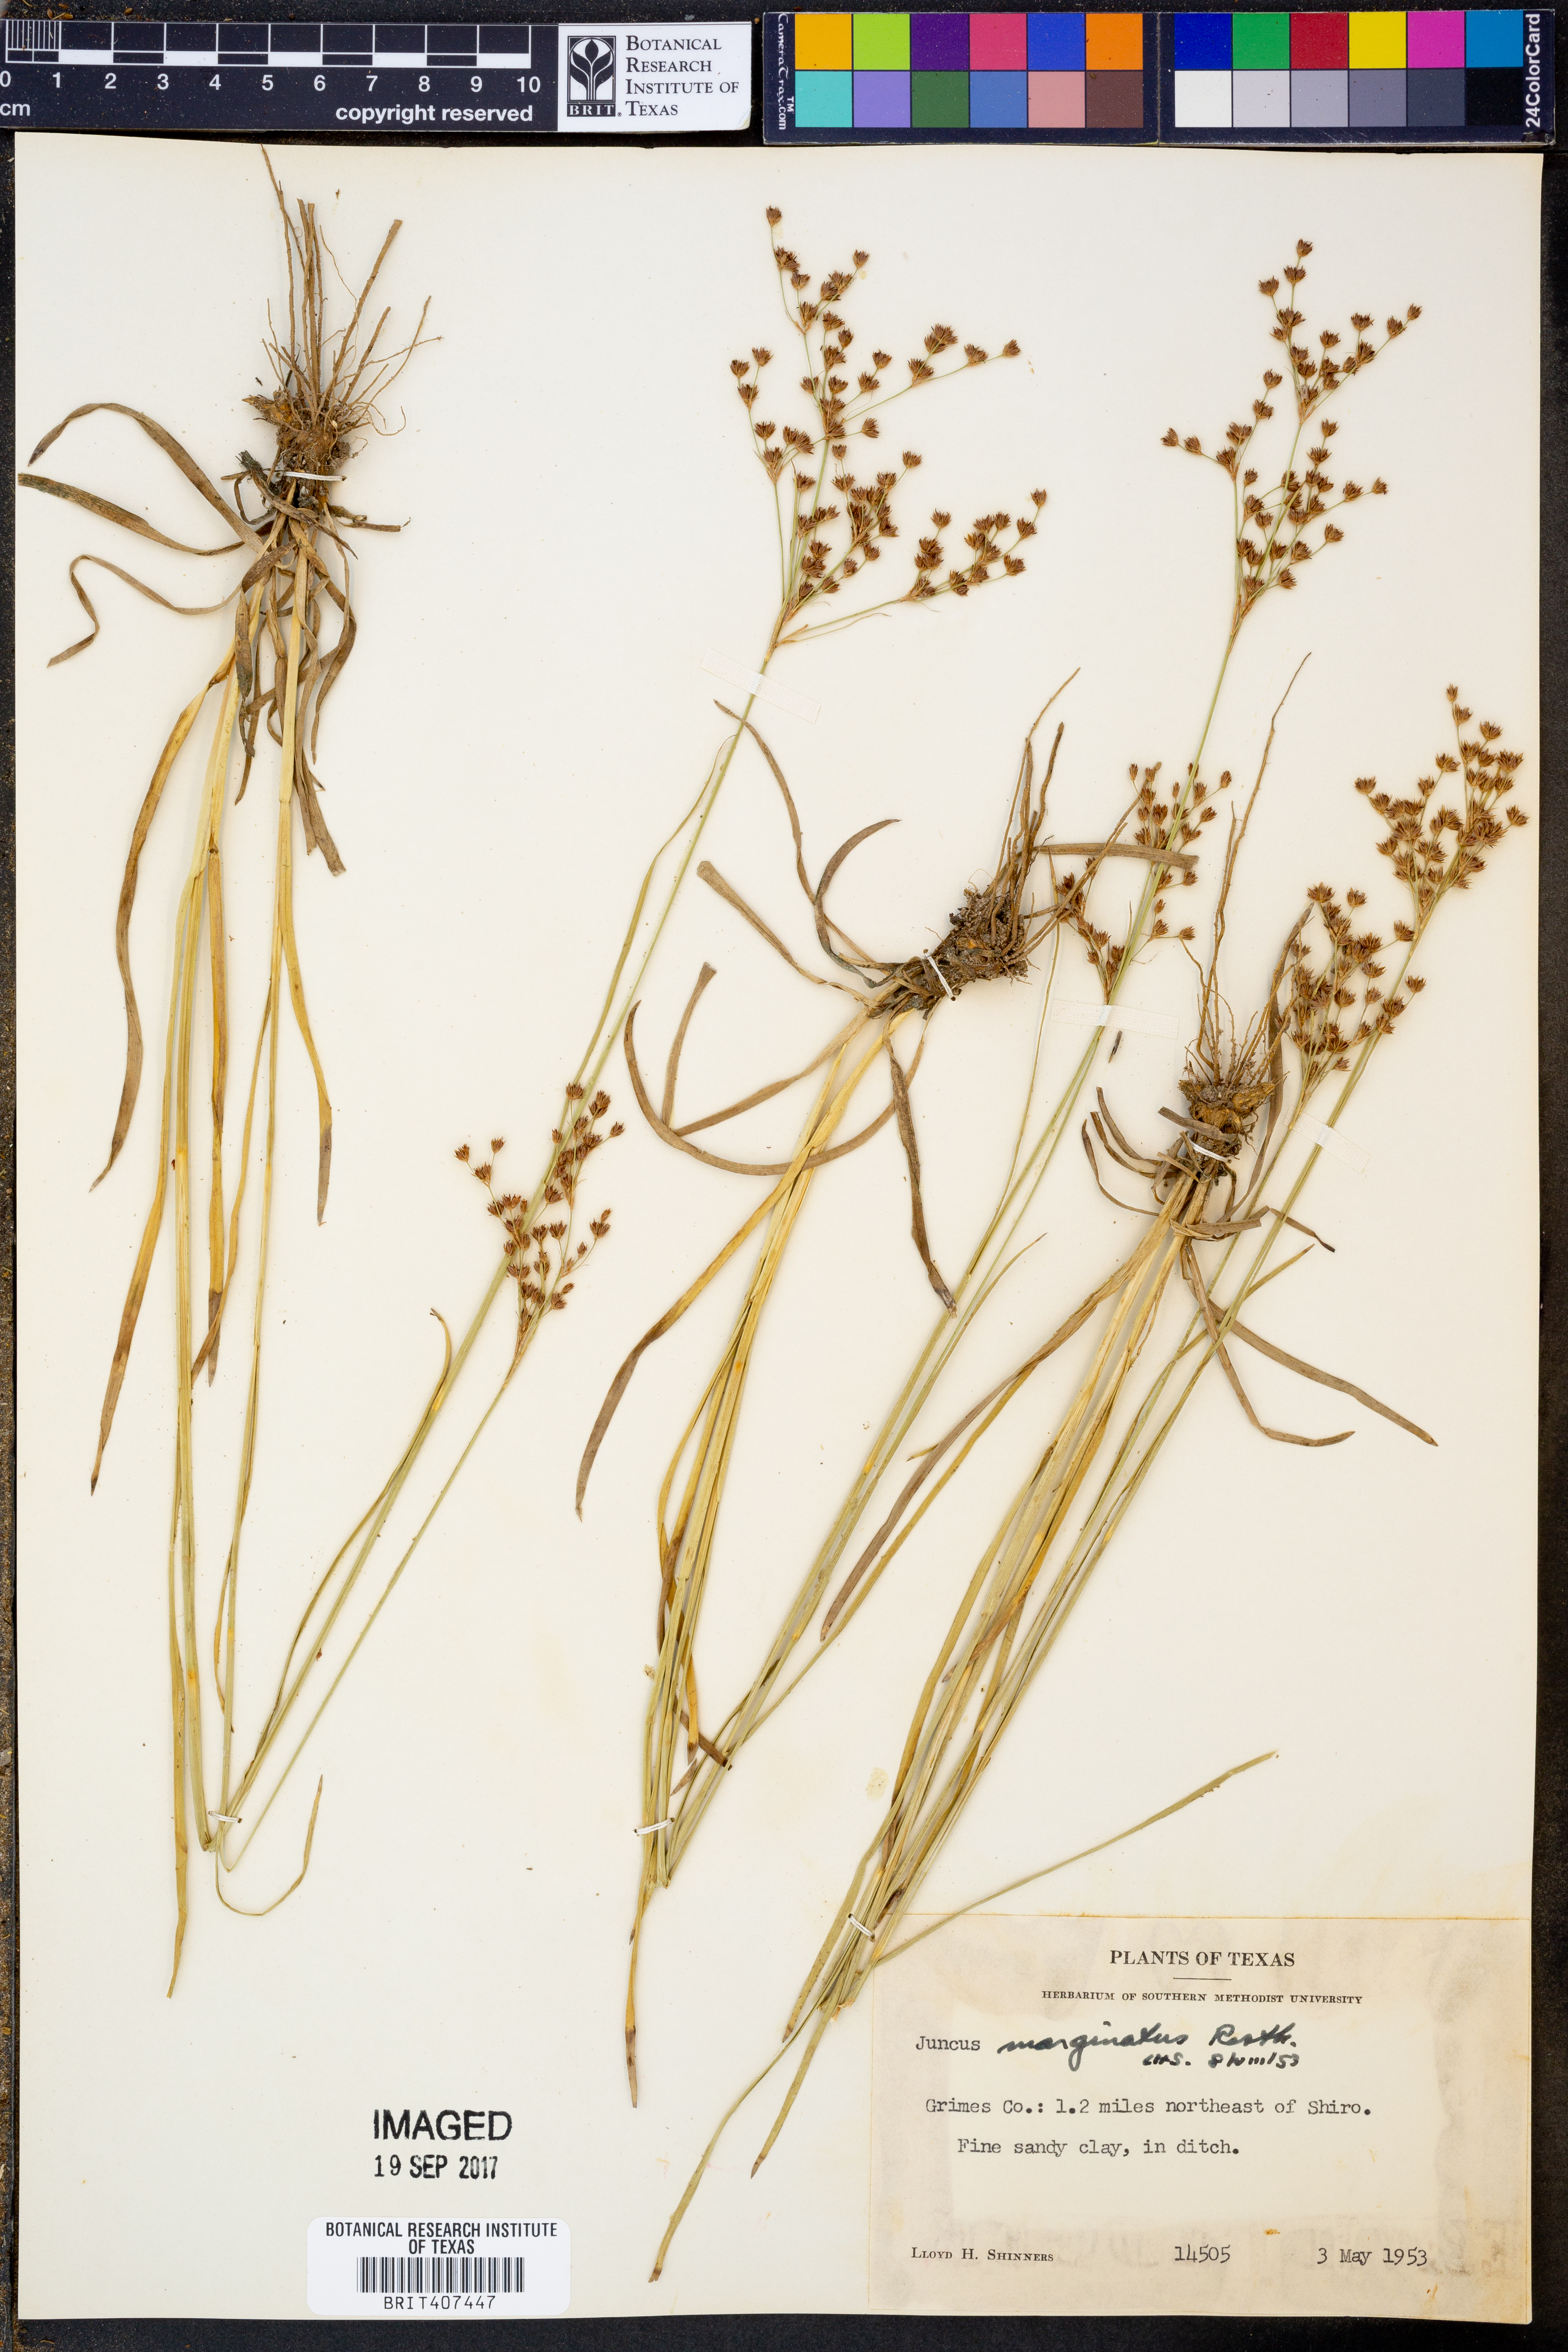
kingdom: Plantae
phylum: Tracheophyta
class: Liliopsida
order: Poales
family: Juncaceae
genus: Juncus
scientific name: Juncus marginatus
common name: Grass-leaf rush
